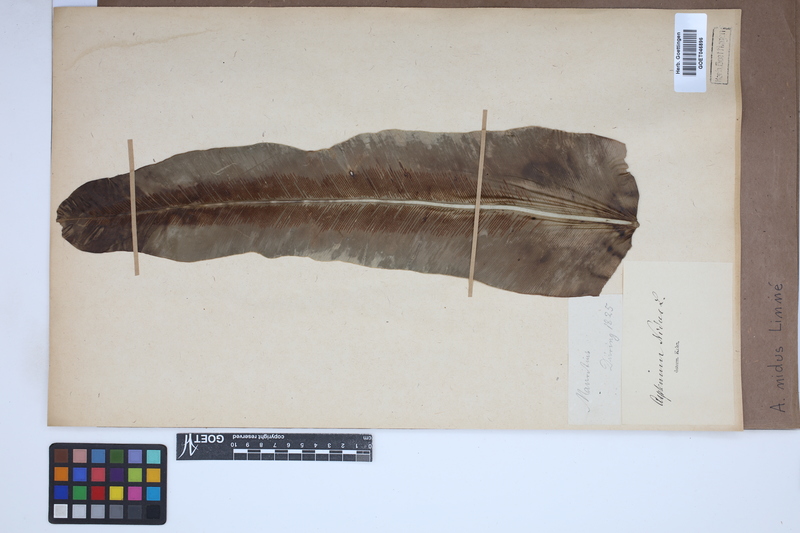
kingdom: Plantae
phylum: Tracheophyta
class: Polypodiopsida
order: Polypodiales
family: Aspleniaceae
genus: Asplenium
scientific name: Asplenium nidus
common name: Bird's-nest fern
